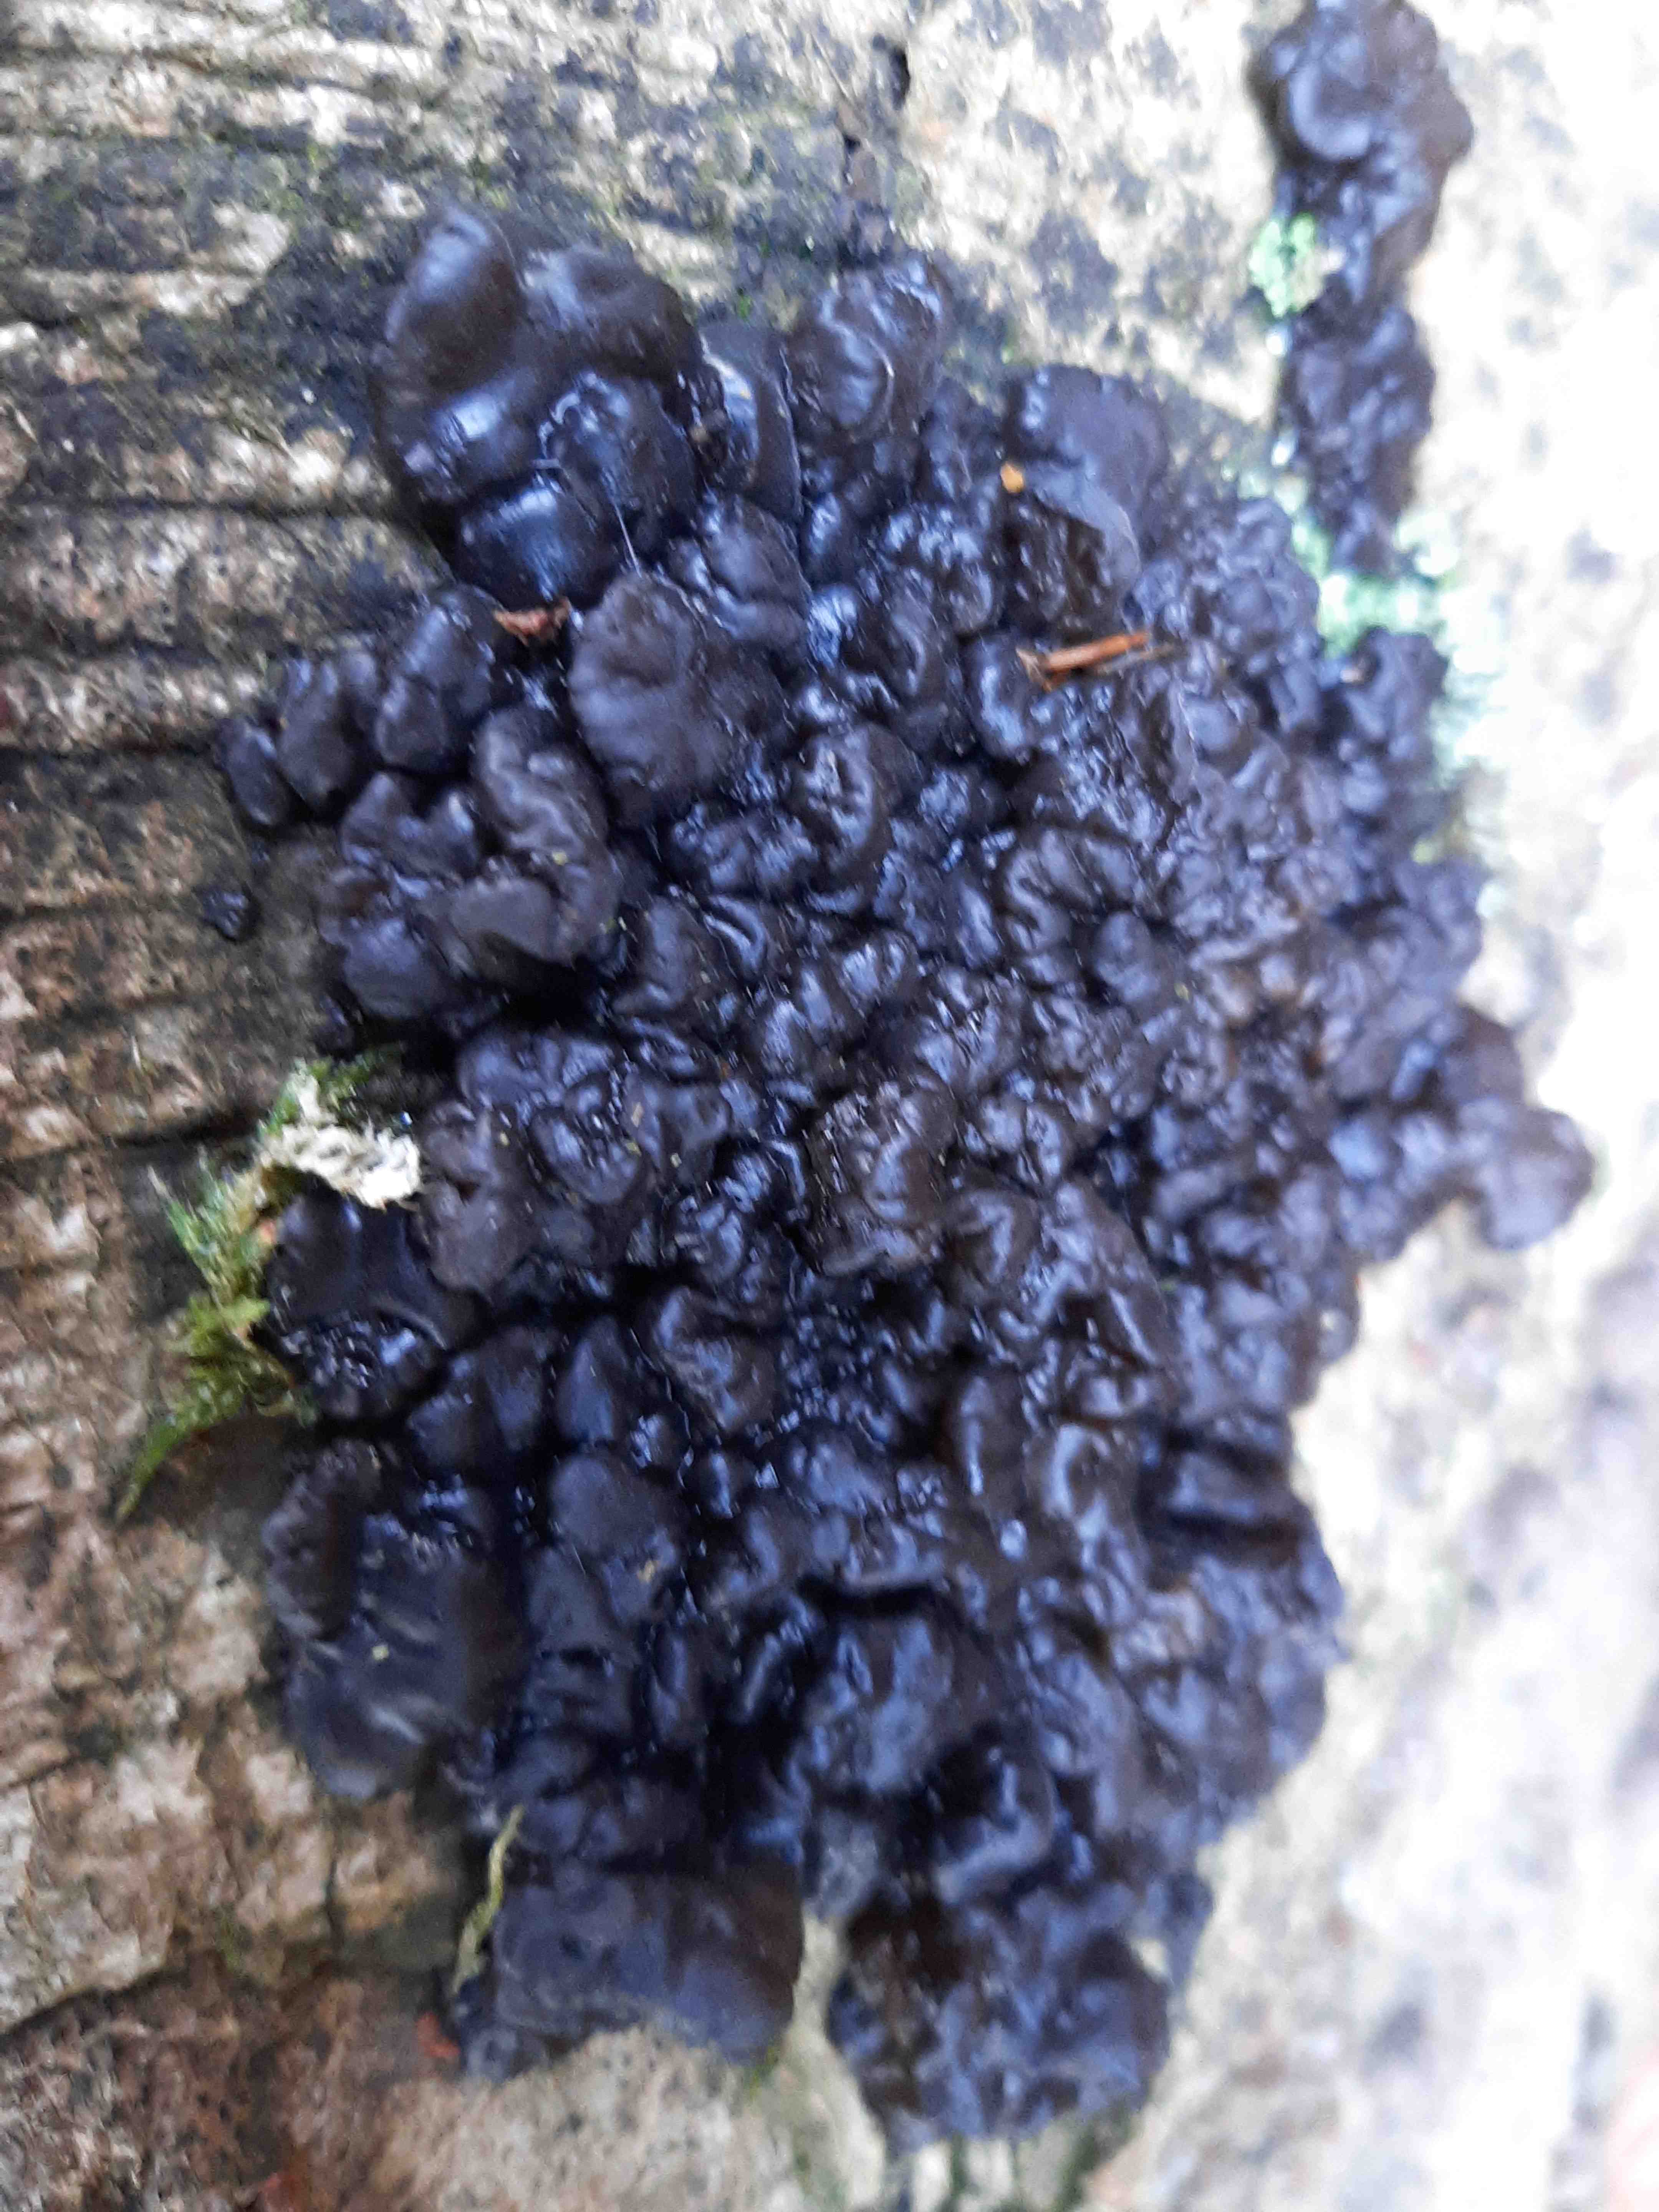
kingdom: Fungi
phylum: Basidiomycota
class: Agaricomycetes
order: Auriculariales
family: Auriculariaceae
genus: Exidia
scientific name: Exidia nigricans
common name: almindelig bævretop
